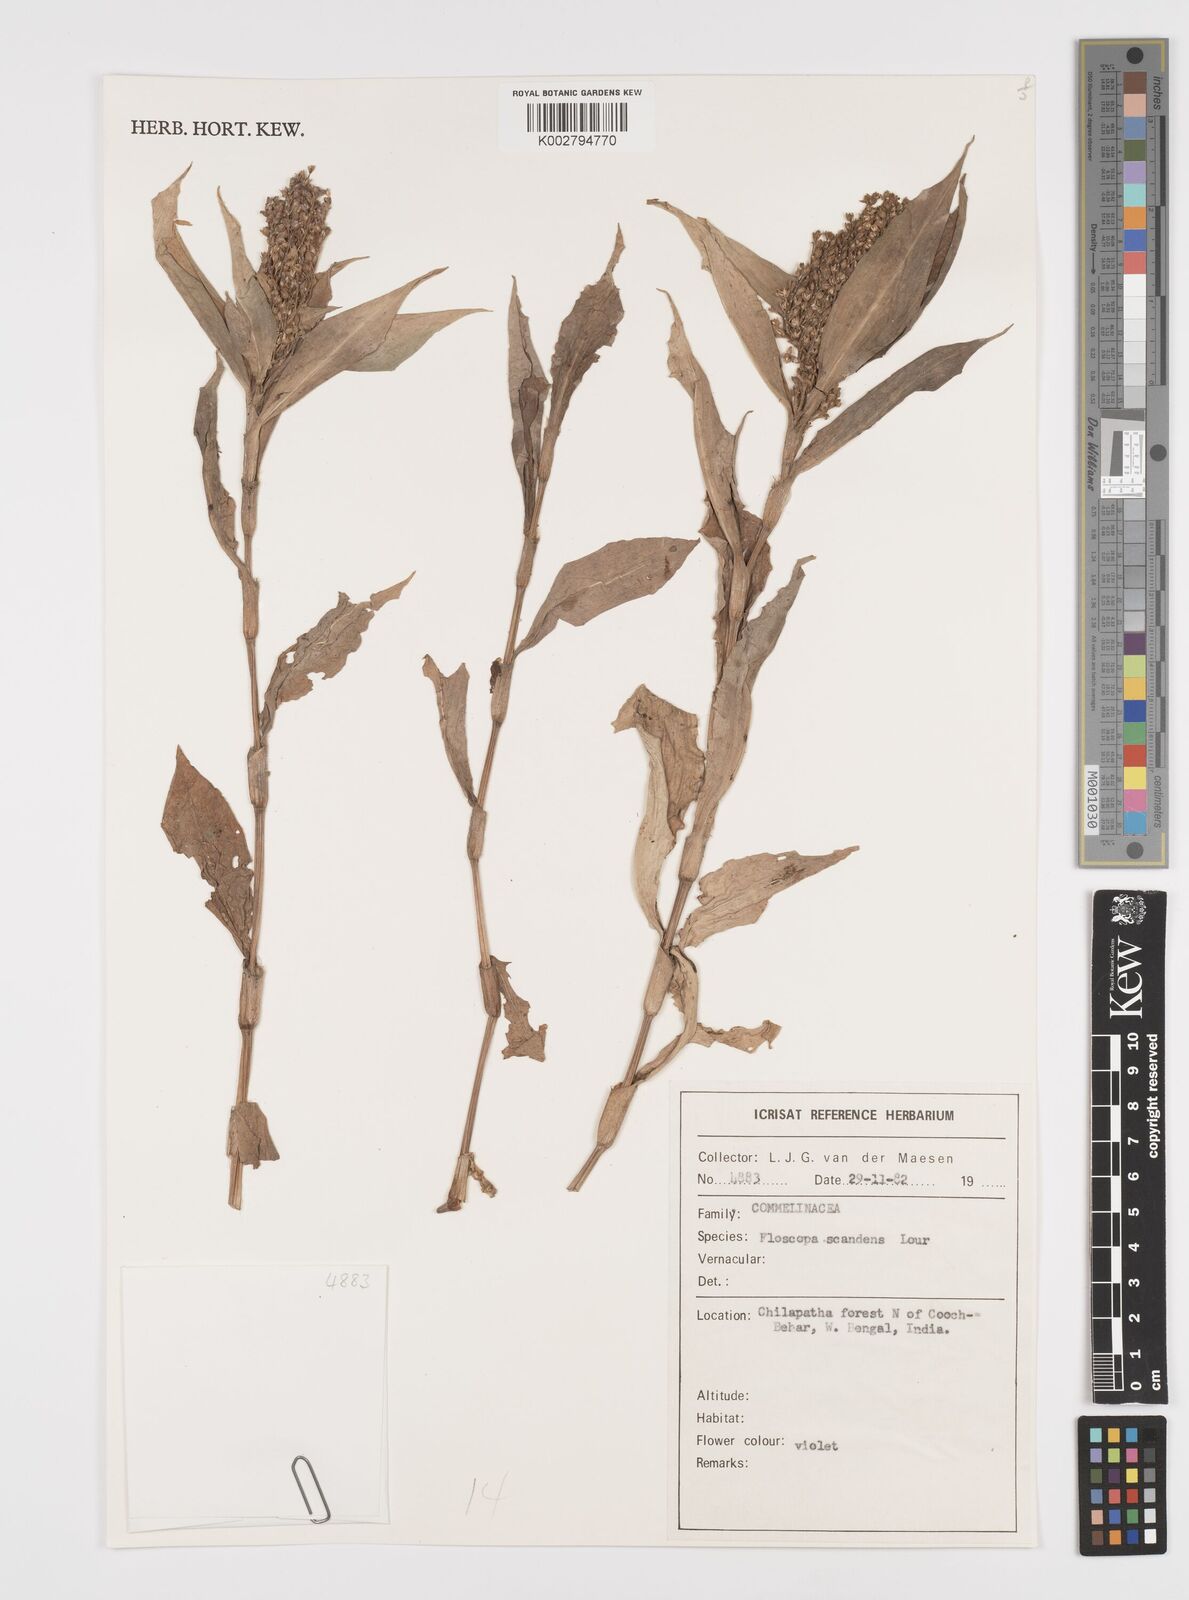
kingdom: Plantae
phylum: Tracheophyta
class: Liliopsida
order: Commelinales
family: Commelinaceae
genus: Floscopa
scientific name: Floscopa scandens
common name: Climbing flower cup
